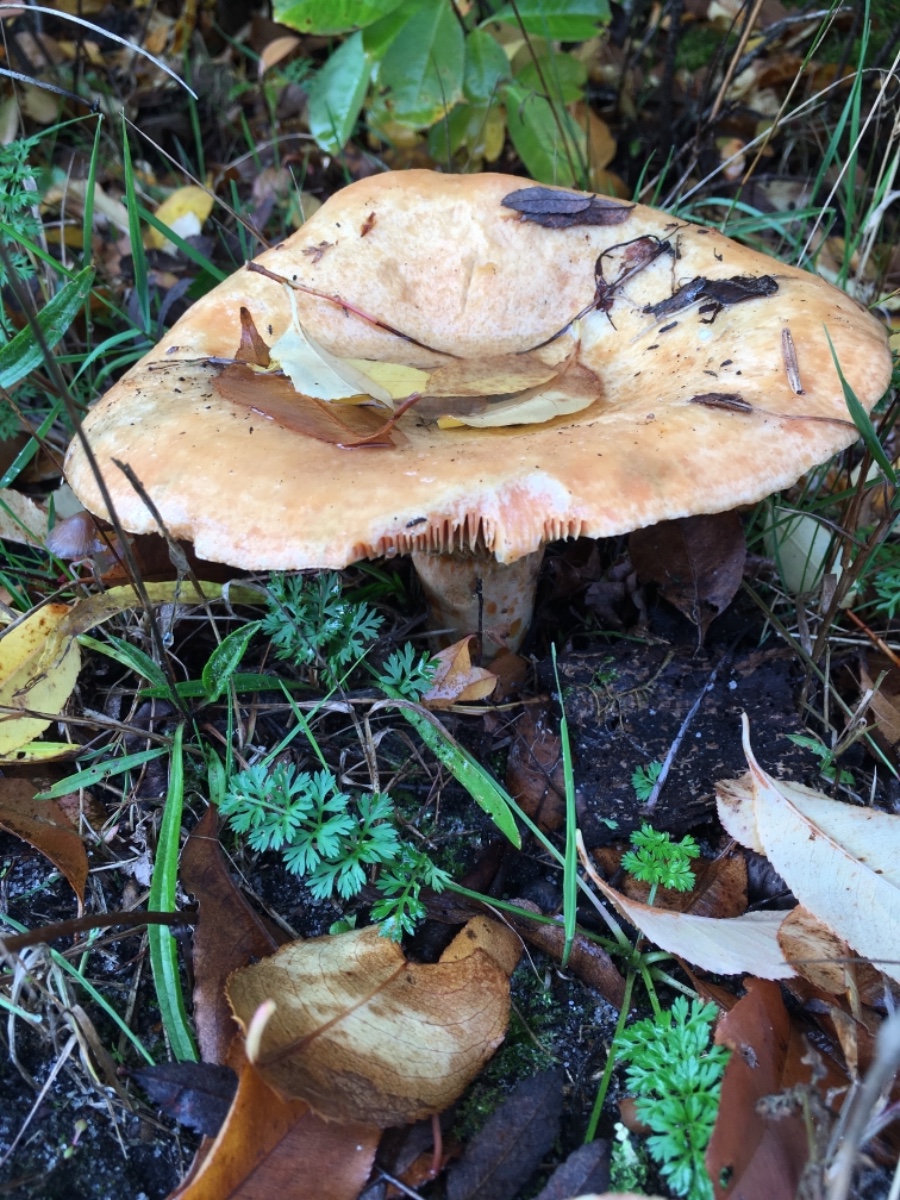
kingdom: Fungi
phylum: Basidiomycota
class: Agaricomycetes
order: Russulales
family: Russulaceae
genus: Lactarius
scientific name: Lactarius deliciosus
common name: velsmagende mælkehat
